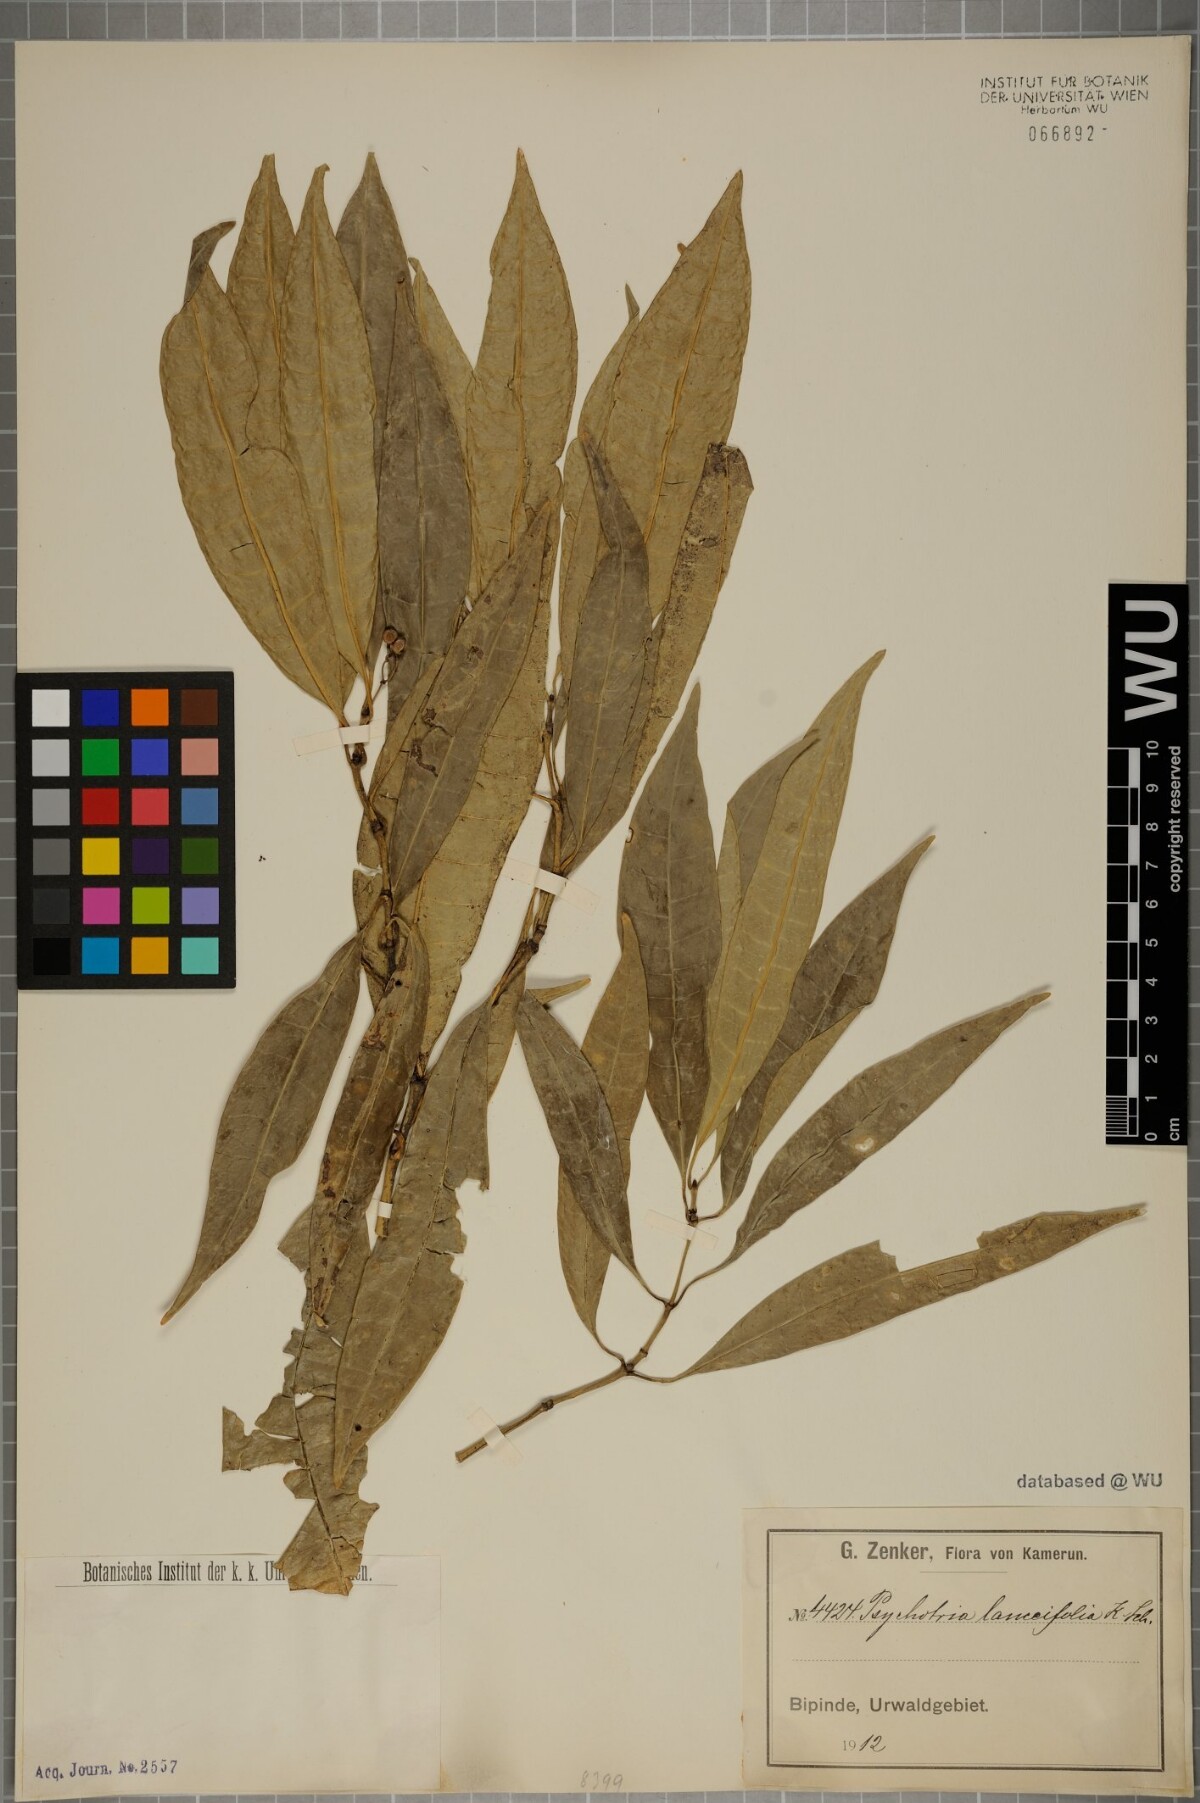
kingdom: Plantae
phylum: Tracheophyta
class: Magnoliopsida
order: Gentianales
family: Rubiaceae
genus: Psychotria
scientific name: Psychotria lanceifolia
